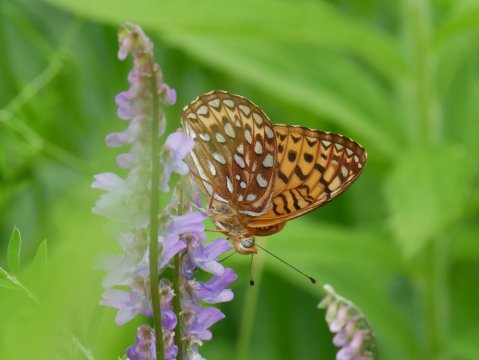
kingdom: Animalia
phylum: Arthropoda
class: Insecta
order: Lepidoptera
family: Nymphalidae
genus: Speyeria
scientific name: Speyeria atlantis
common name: Atlantis Fritillary
